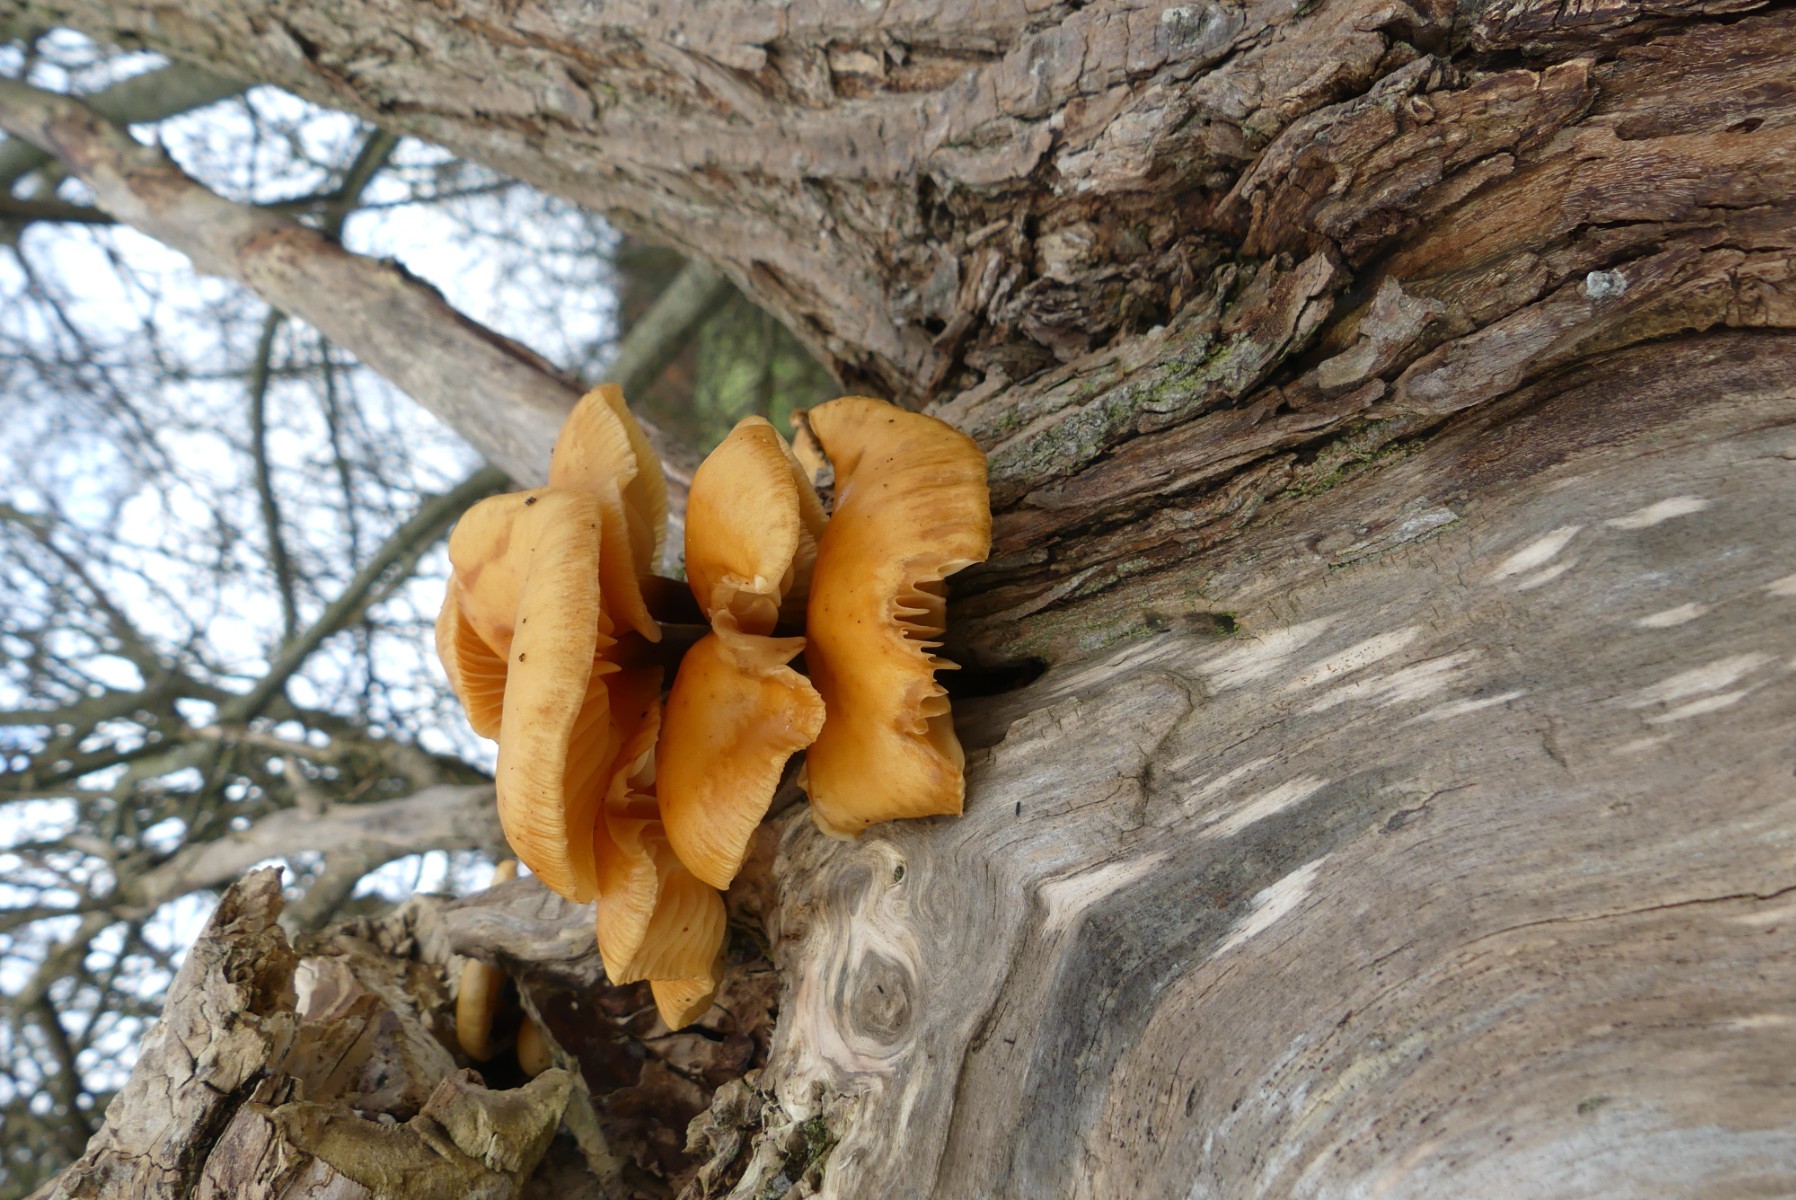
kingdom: Fungi
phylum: Basidiomycota
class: Agaricomycetes
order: Agaricales
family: Physalacriaceae
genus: Flammulina
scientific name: Flammulina
